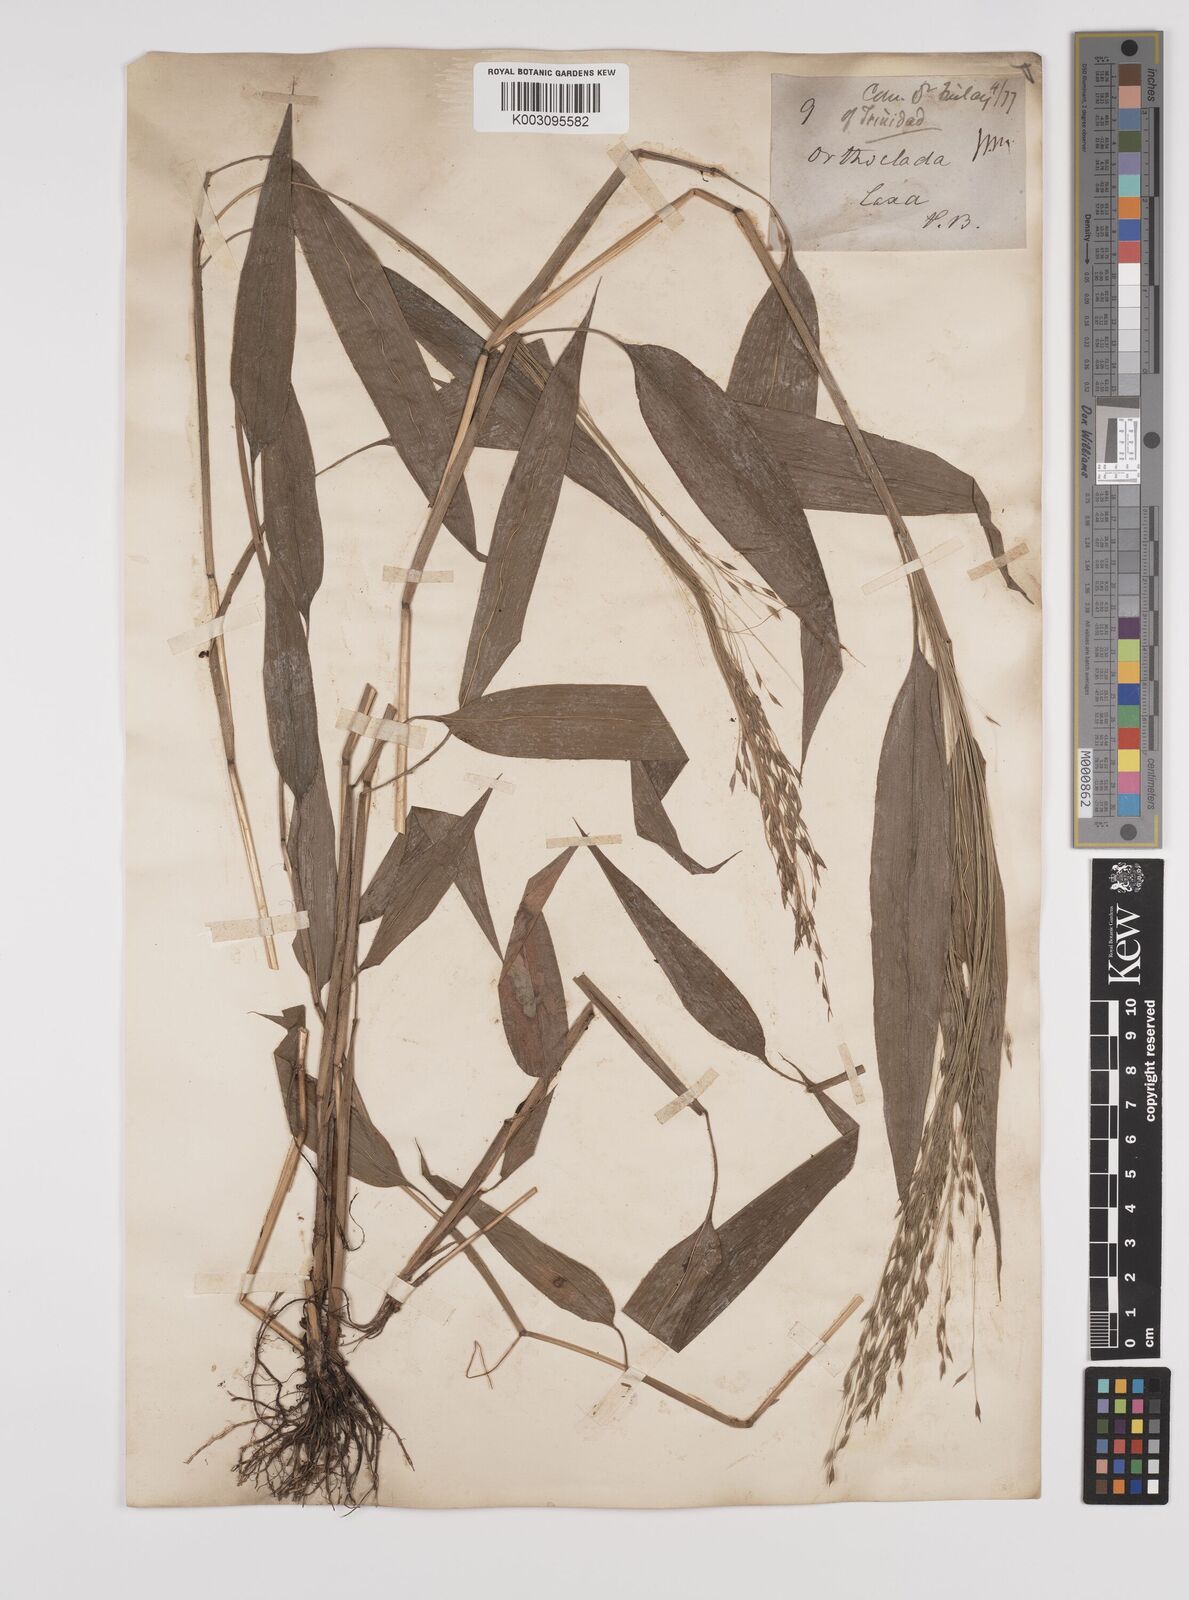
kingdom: Plantae
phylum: Tracheophyta
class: Liliopsida
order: Poales
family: Poaceae
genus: Orthoclada
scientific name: Orthoclada laxa
